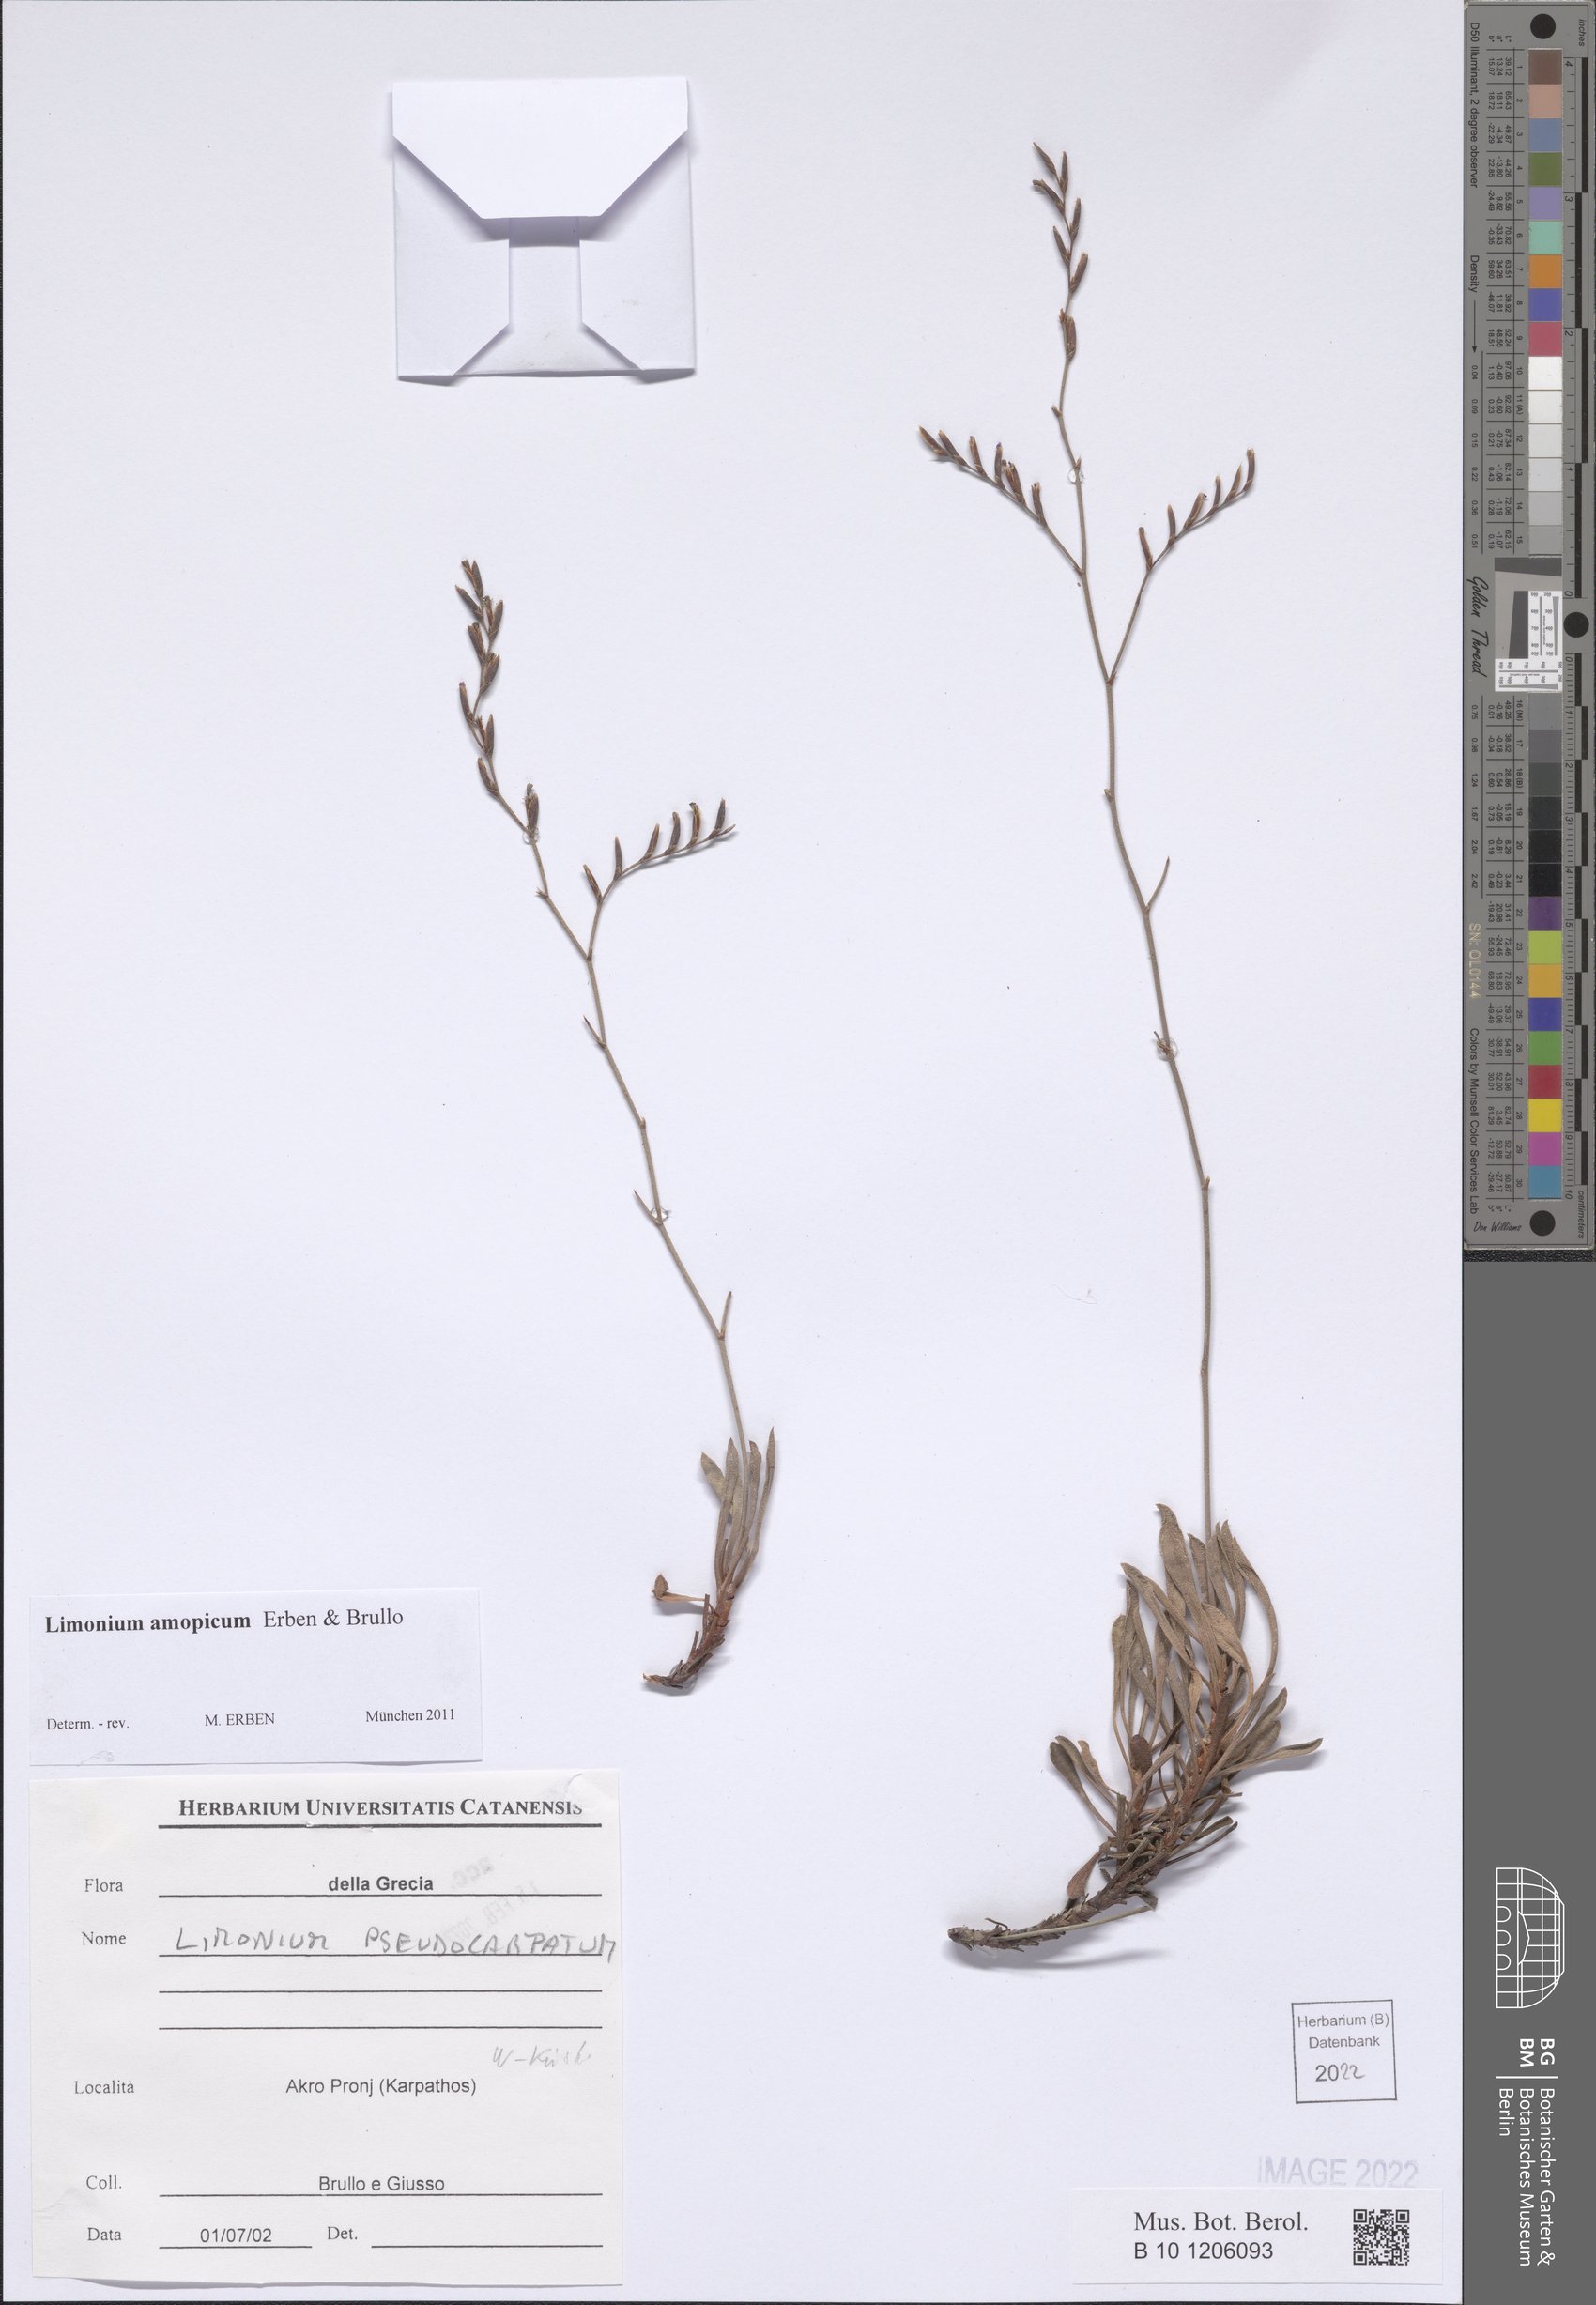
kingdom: Plantae
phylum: Tracheophyta
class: Magnoliopsida
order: Caryophyllales
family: Plumbaginaceae
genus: Limonium
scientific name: Limonium amopicum
